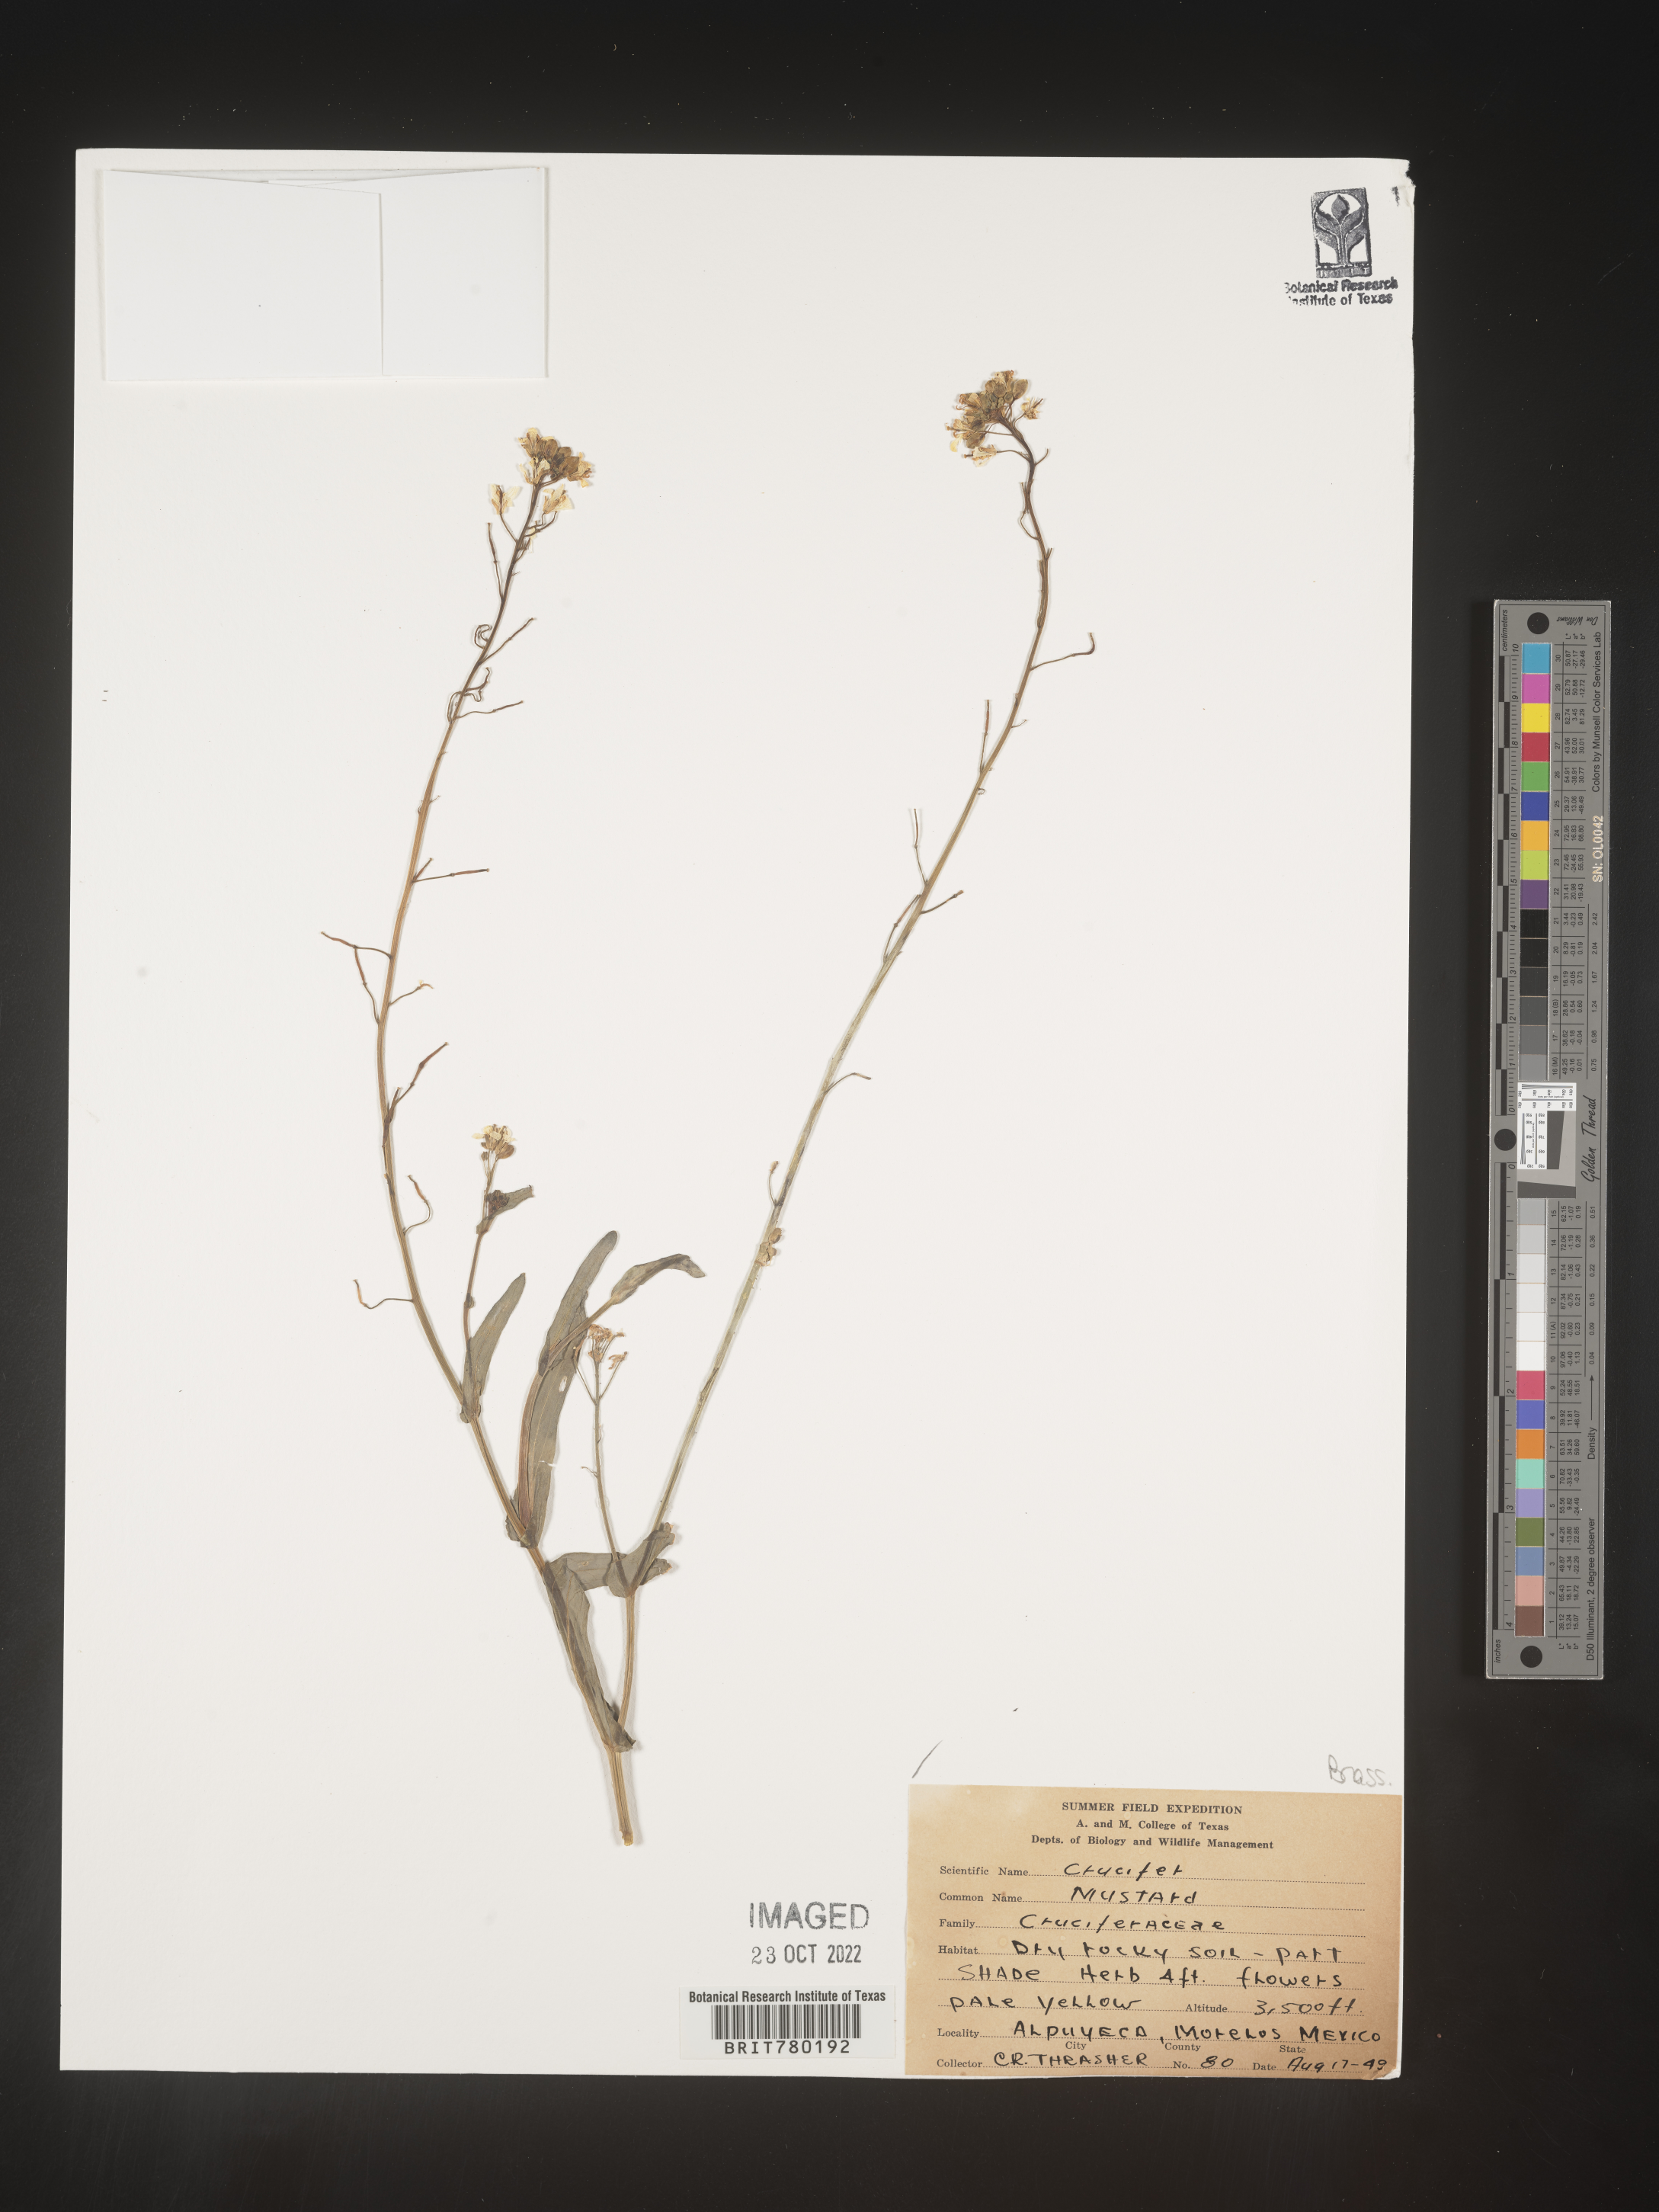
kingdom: Plantae
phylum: Tracheophyta
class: Magnoliopsida
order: Brassicales
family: Brassicaceae
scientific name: Brassicaceae
